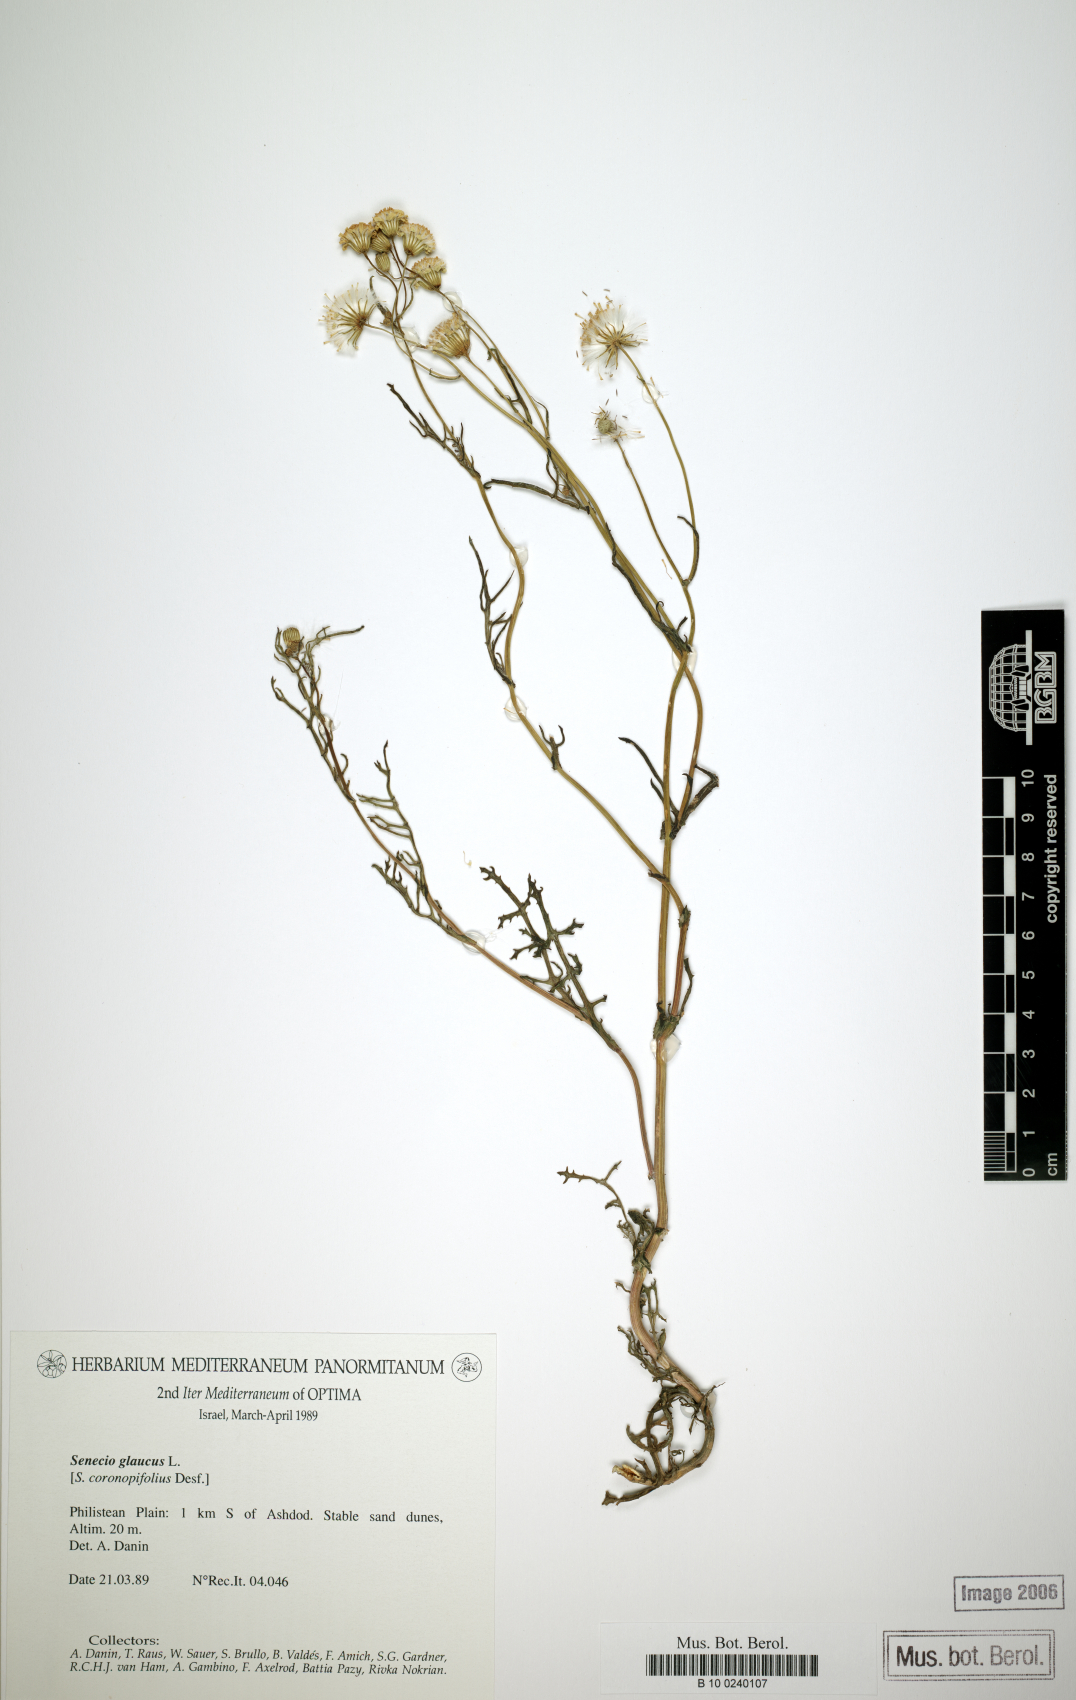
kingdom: Plantae
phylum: Tracheophyta
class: Magnoliopsida
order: Asterales
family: Asteraceae
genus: Senecio
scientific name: Senecio glaucus
